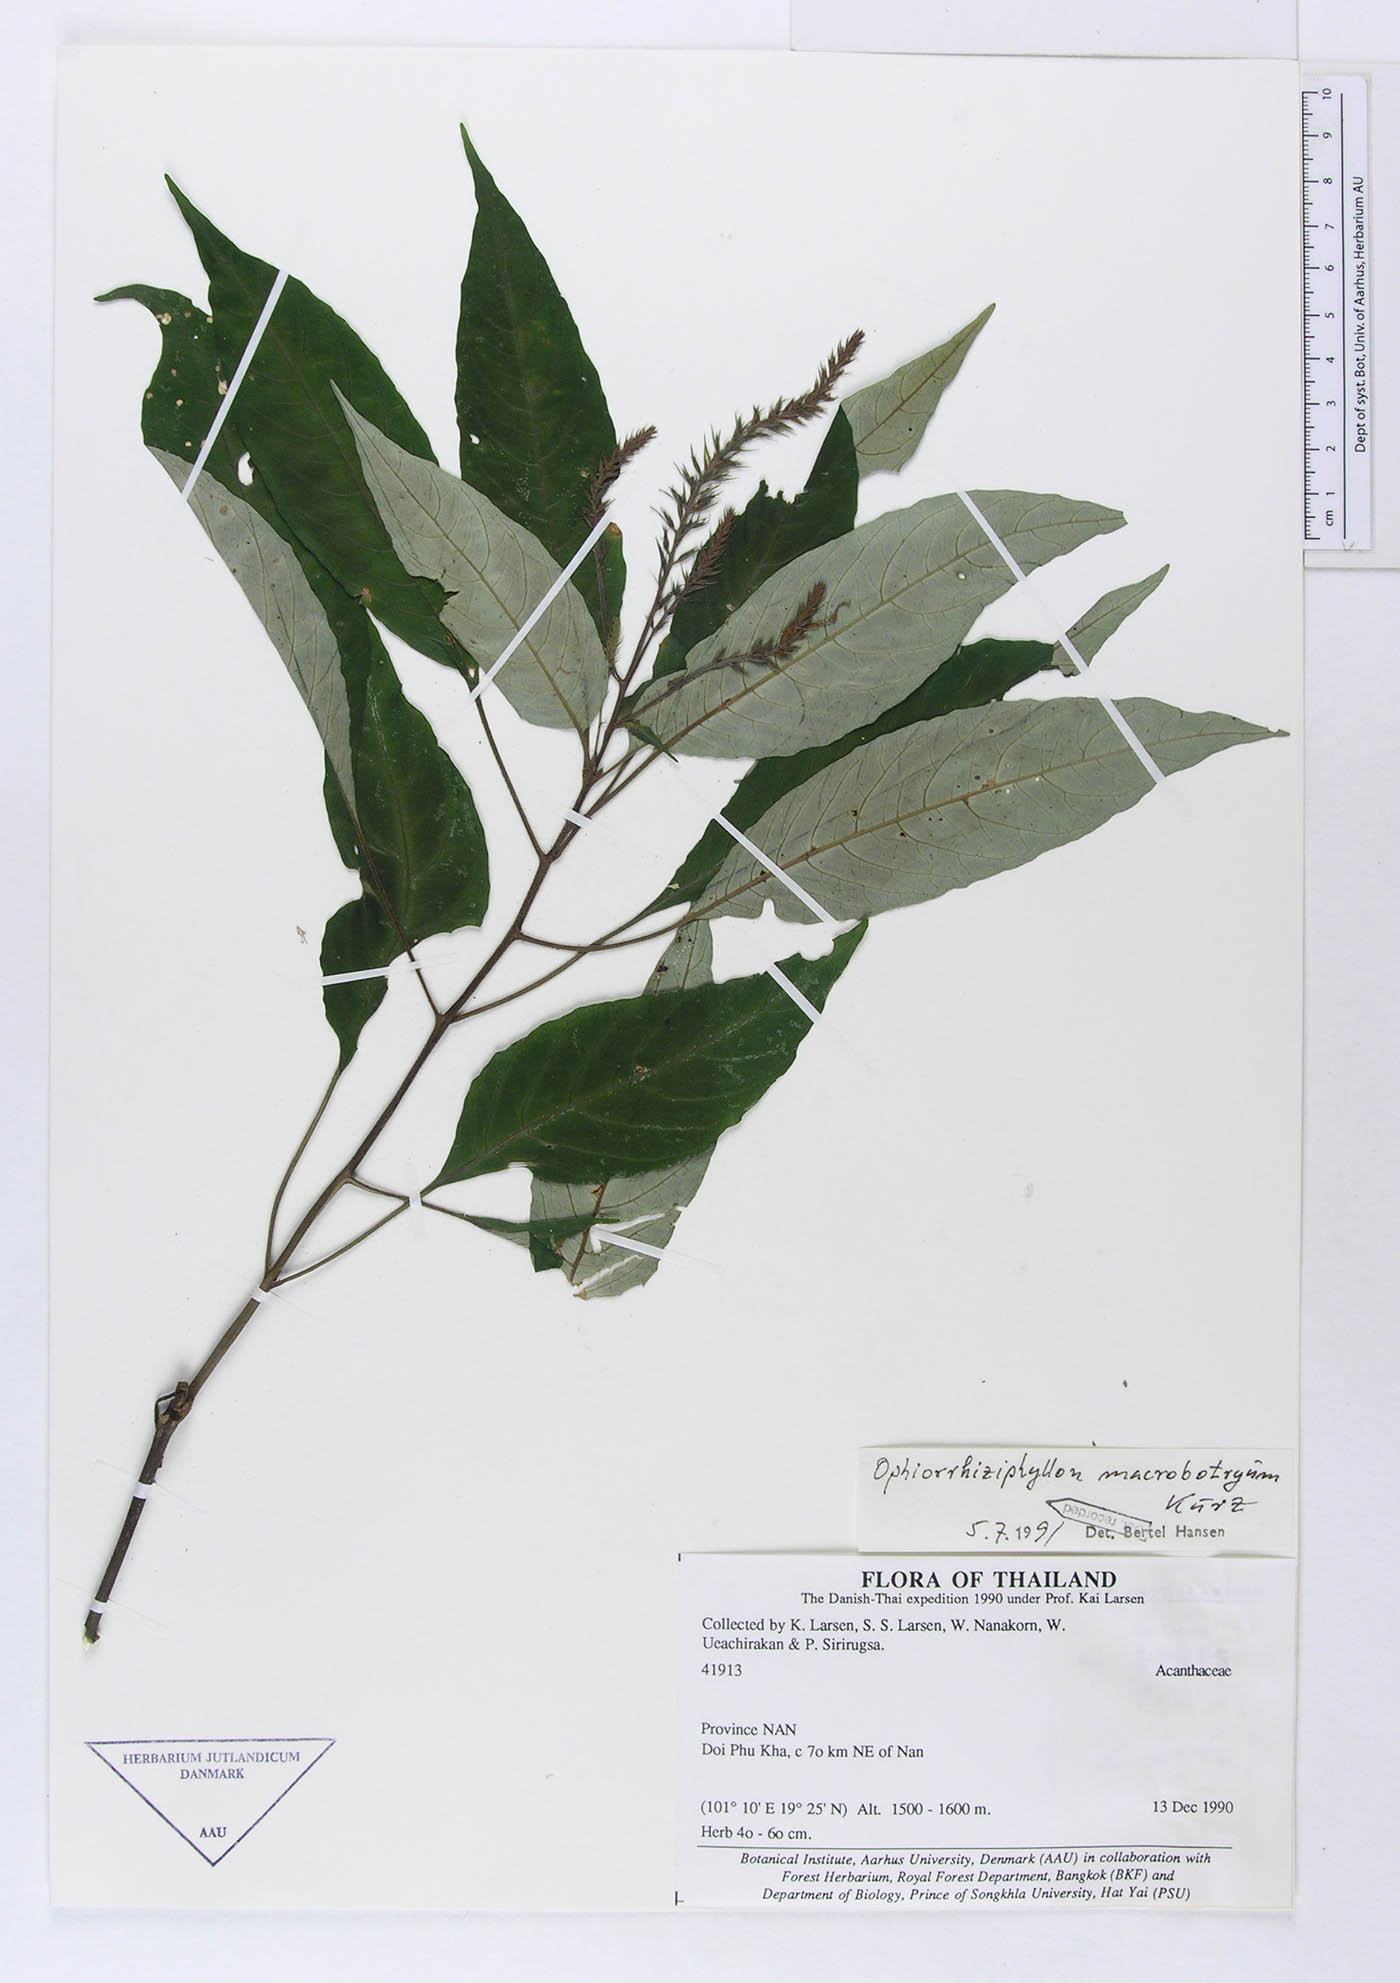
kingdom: Plantae
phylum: Tracheophyta
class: Magnoliopsida
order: Lamiales
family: Acanthaceae
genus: Staurogyne
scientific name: Staurogyne macrobotrya
